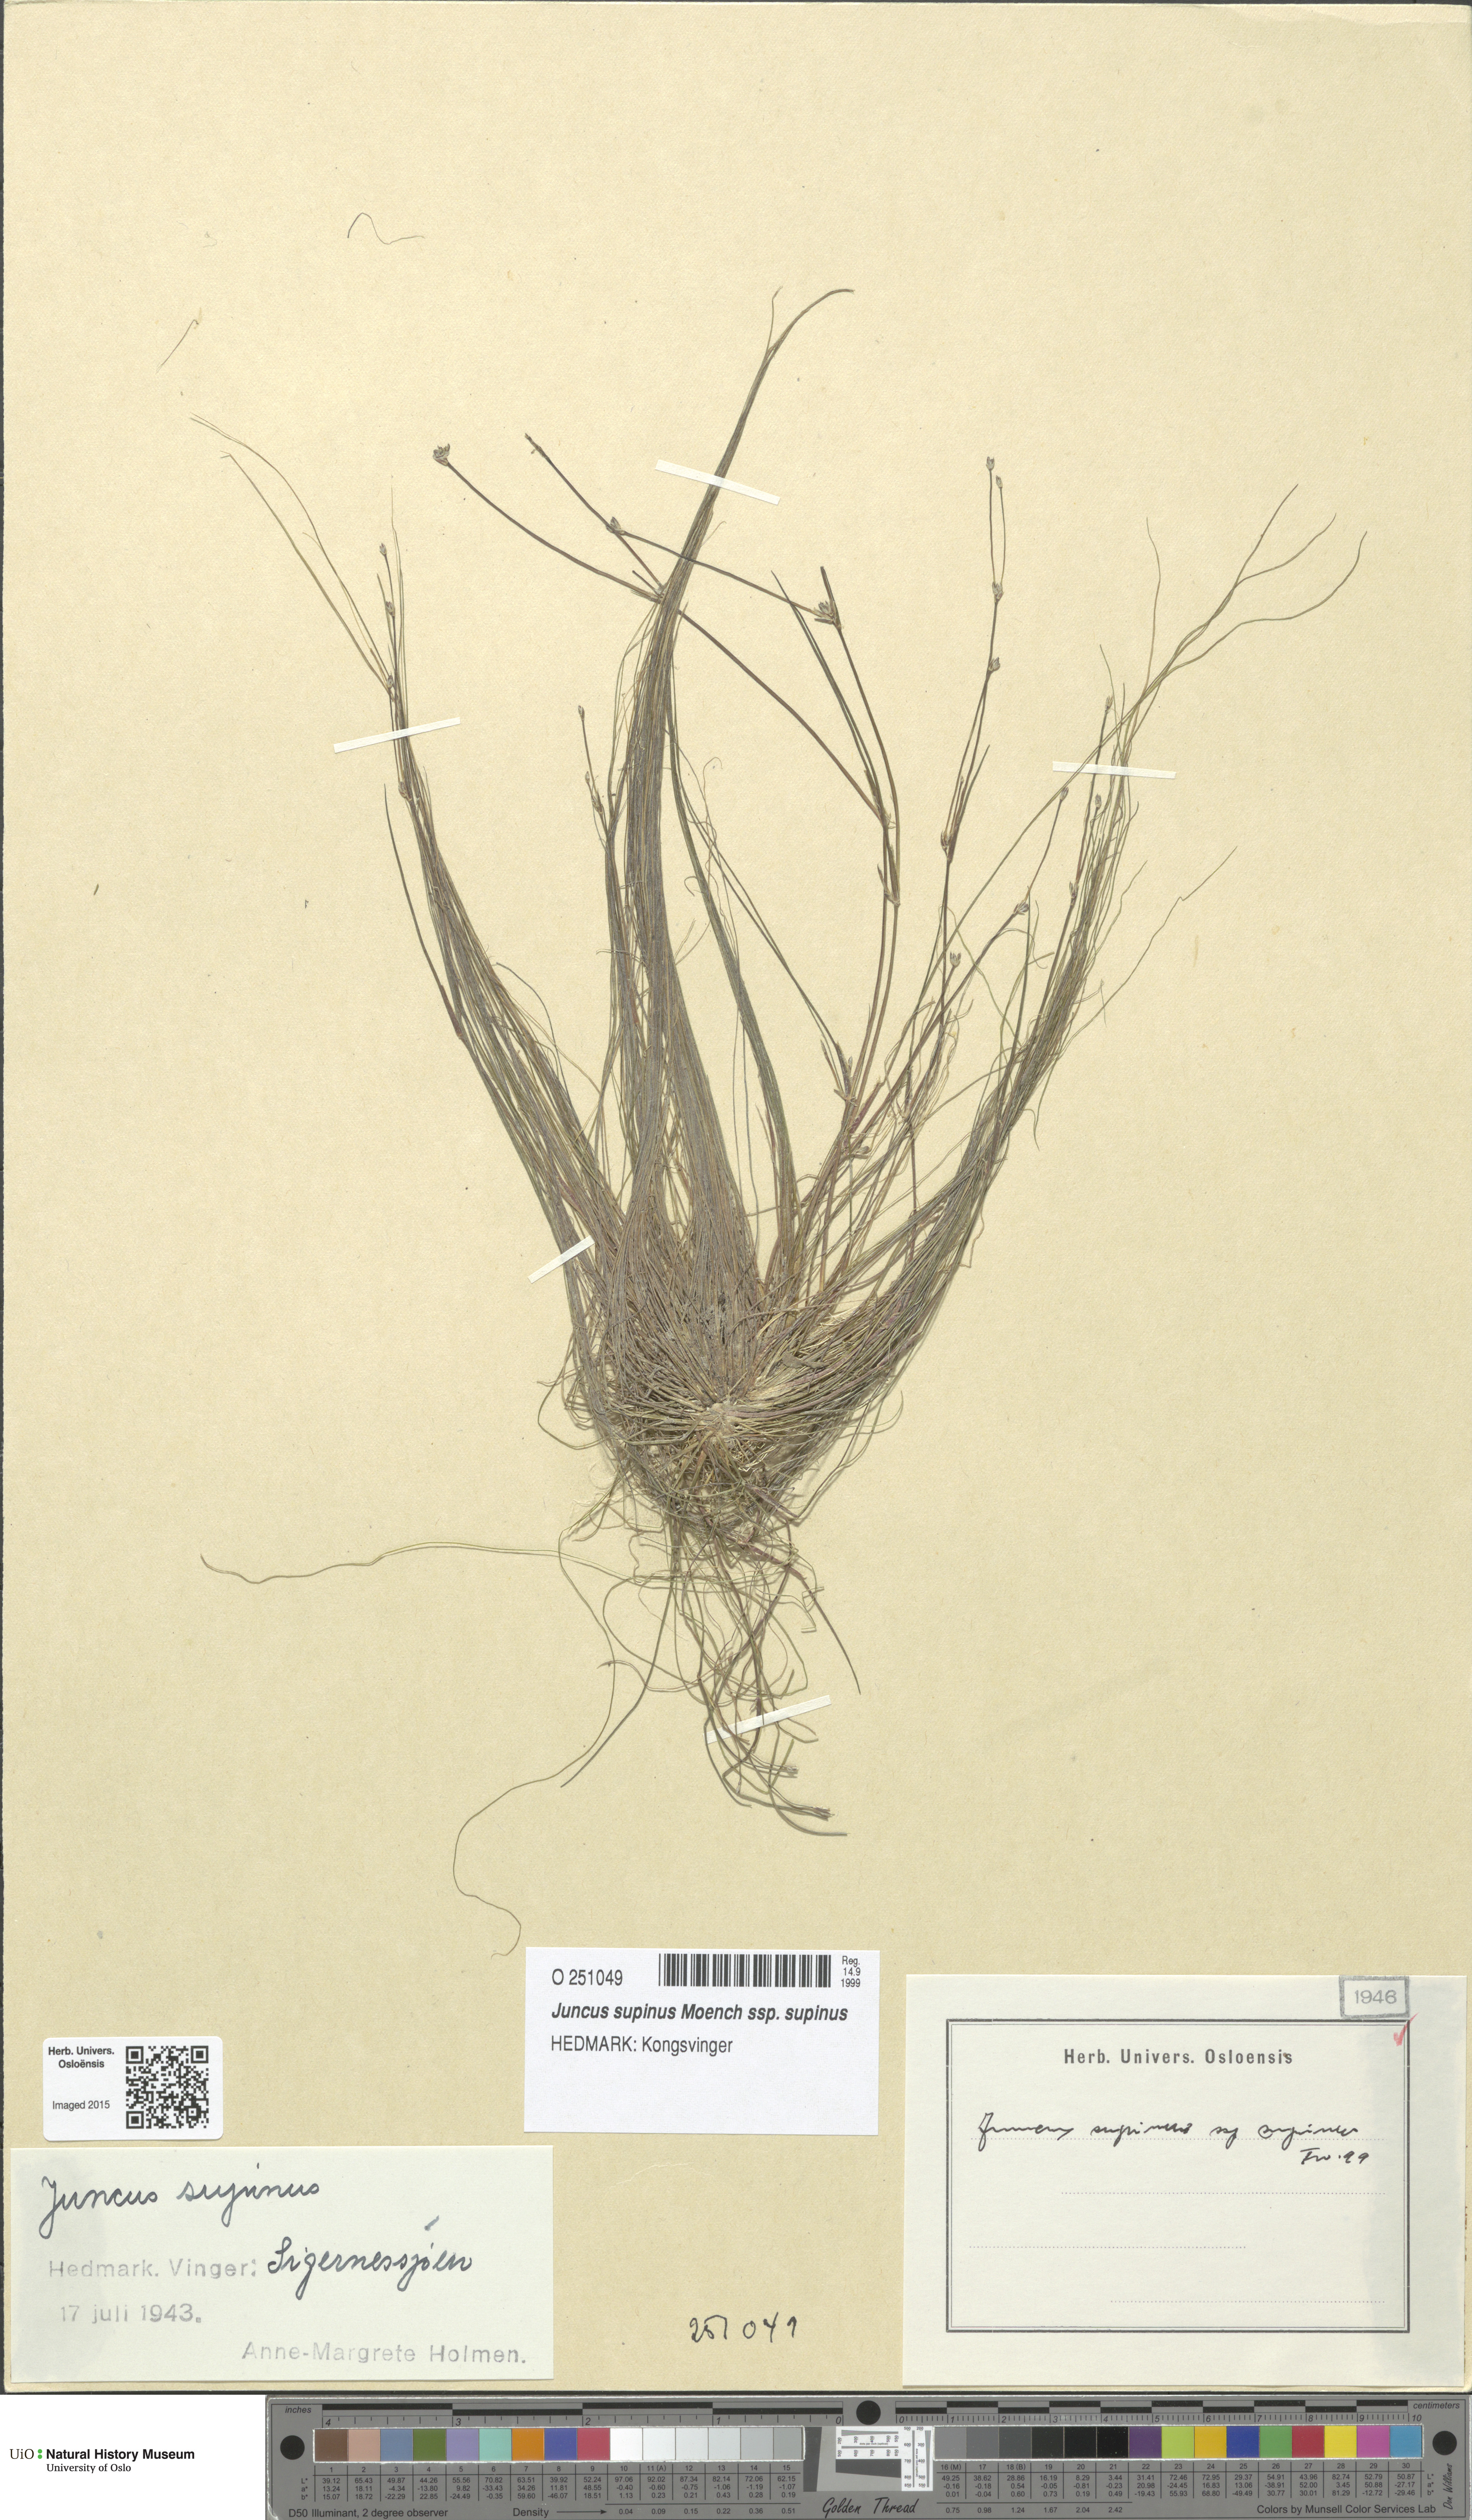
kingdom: Plantae
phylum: Tracheophyta
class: Liliopsida
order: Poales
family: Juncaceae
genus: Juncus
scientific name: Juncus bulbosus
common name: Bulbous rush
